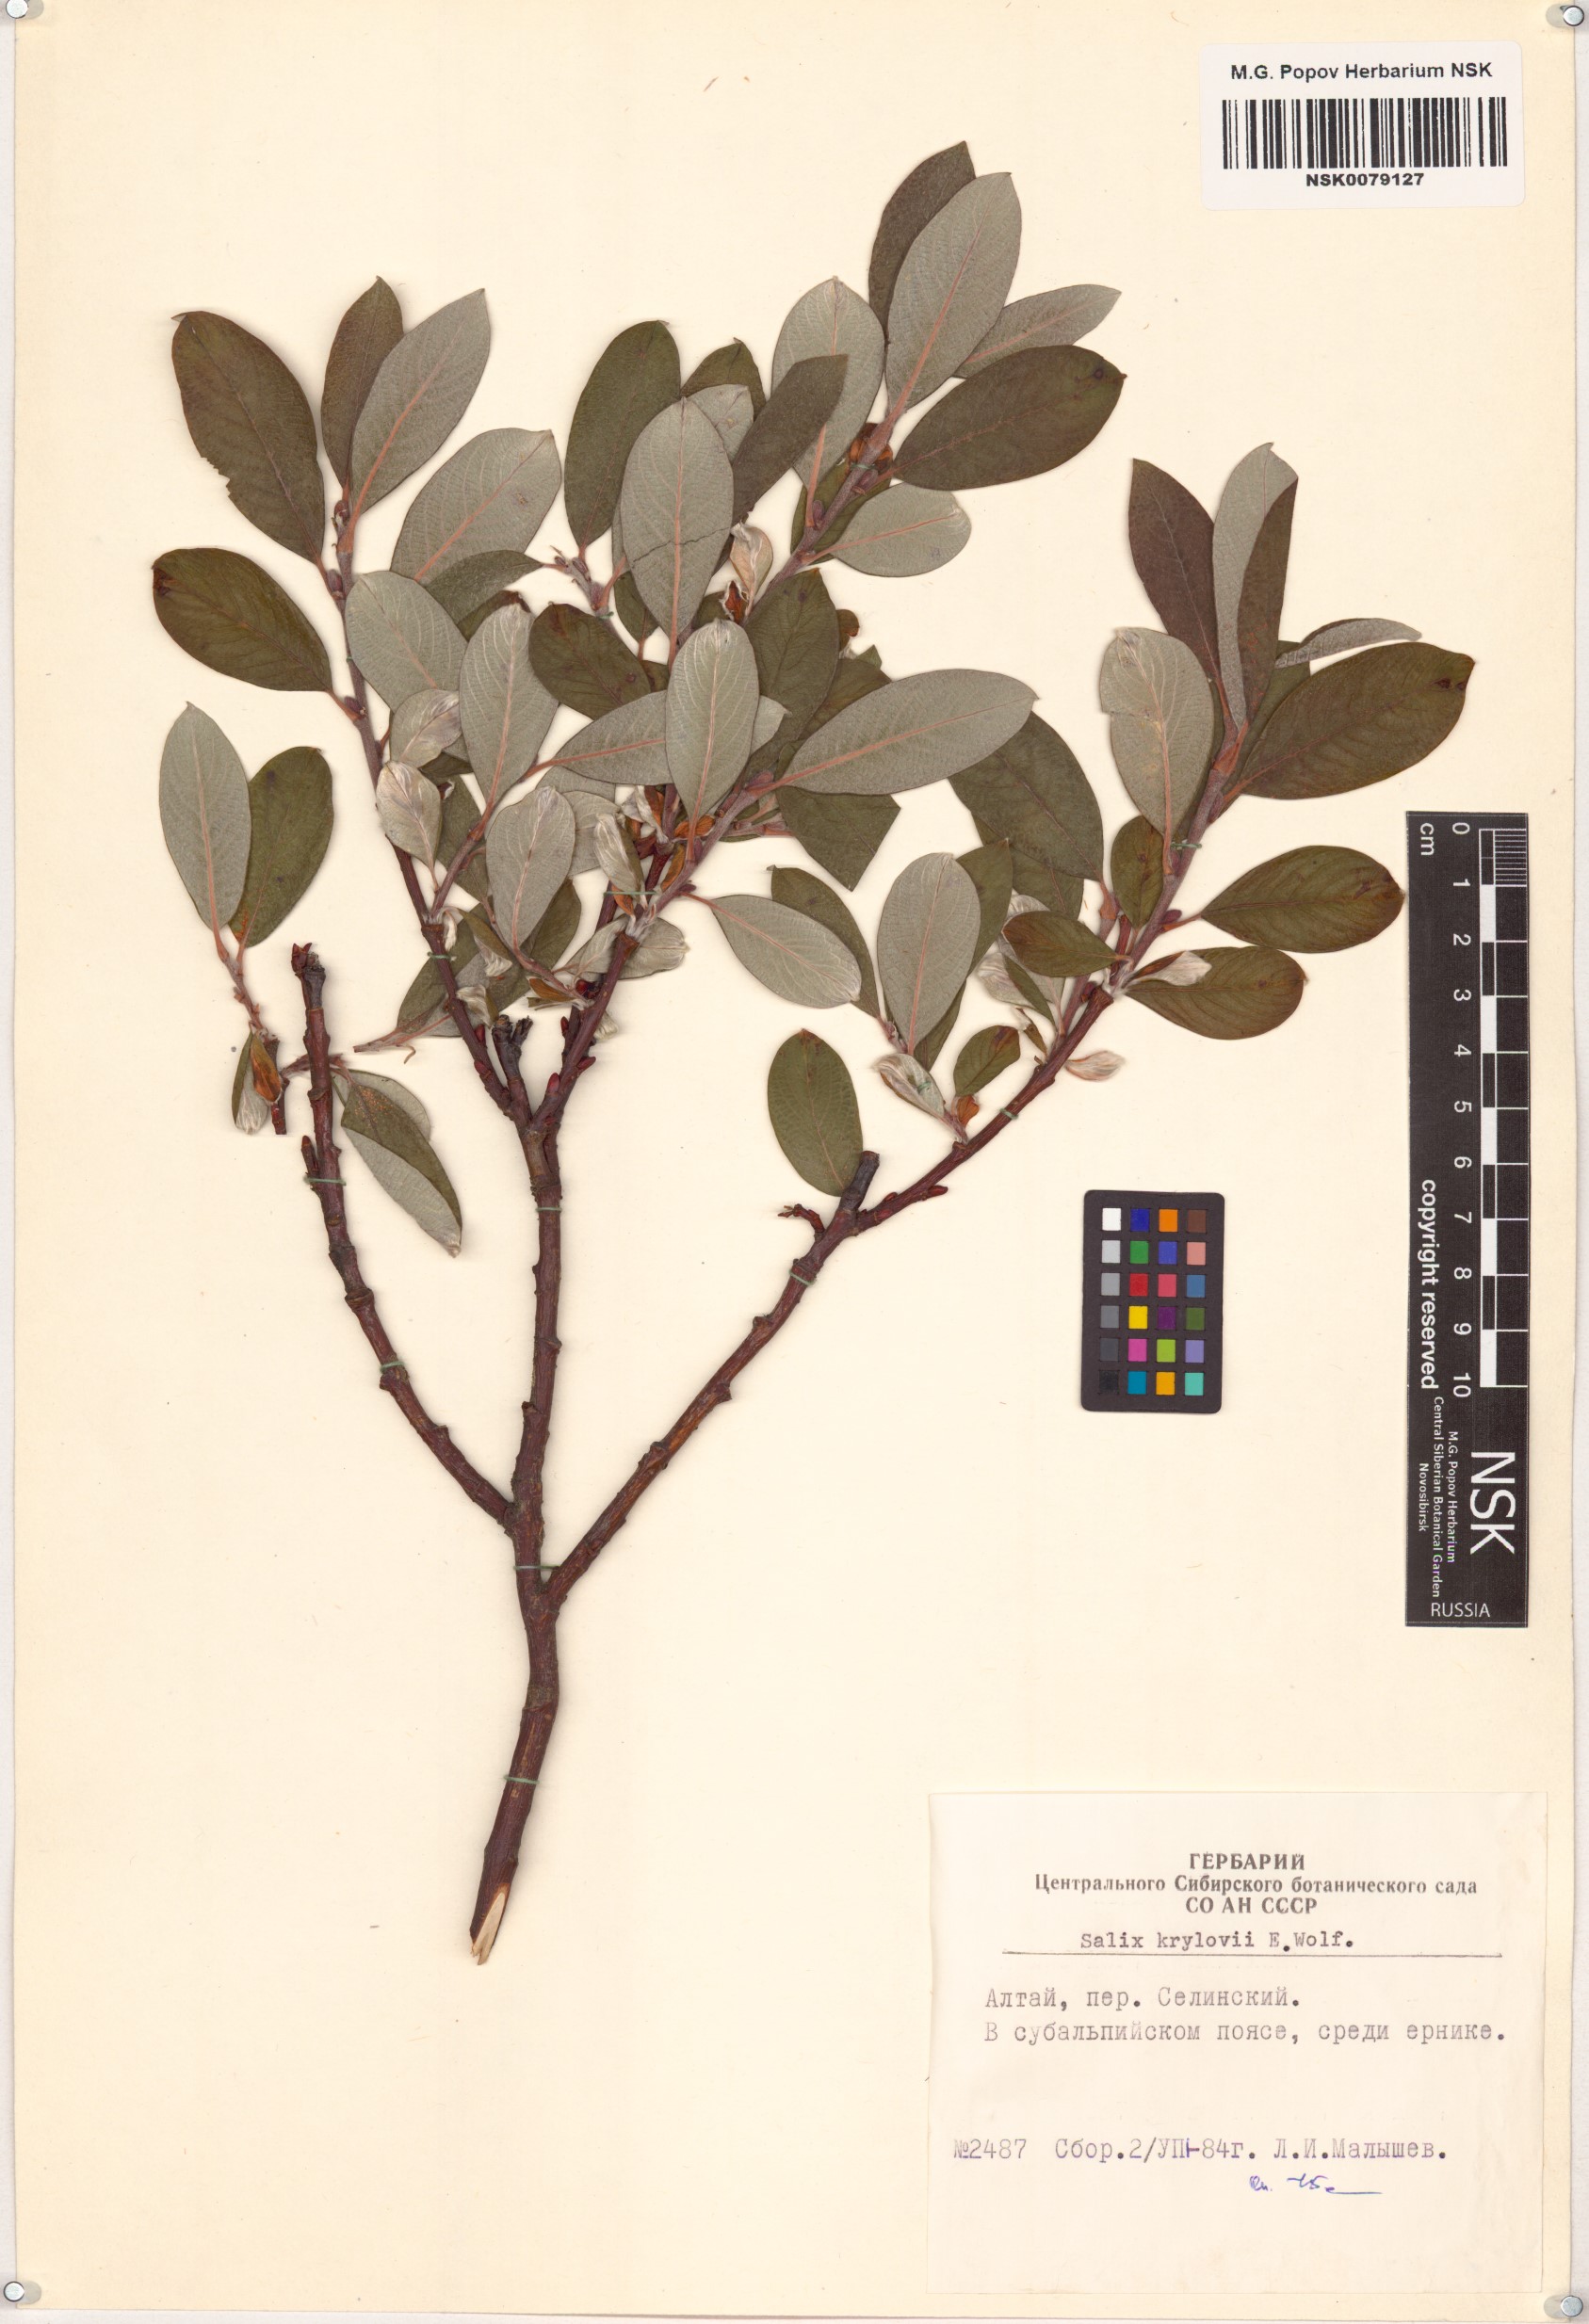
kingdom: Plantae
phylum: Tracheophyta
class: Magnoliopsida
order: Malpighiales
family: Salicaceae
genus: Salix
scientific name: Salix krylovii
